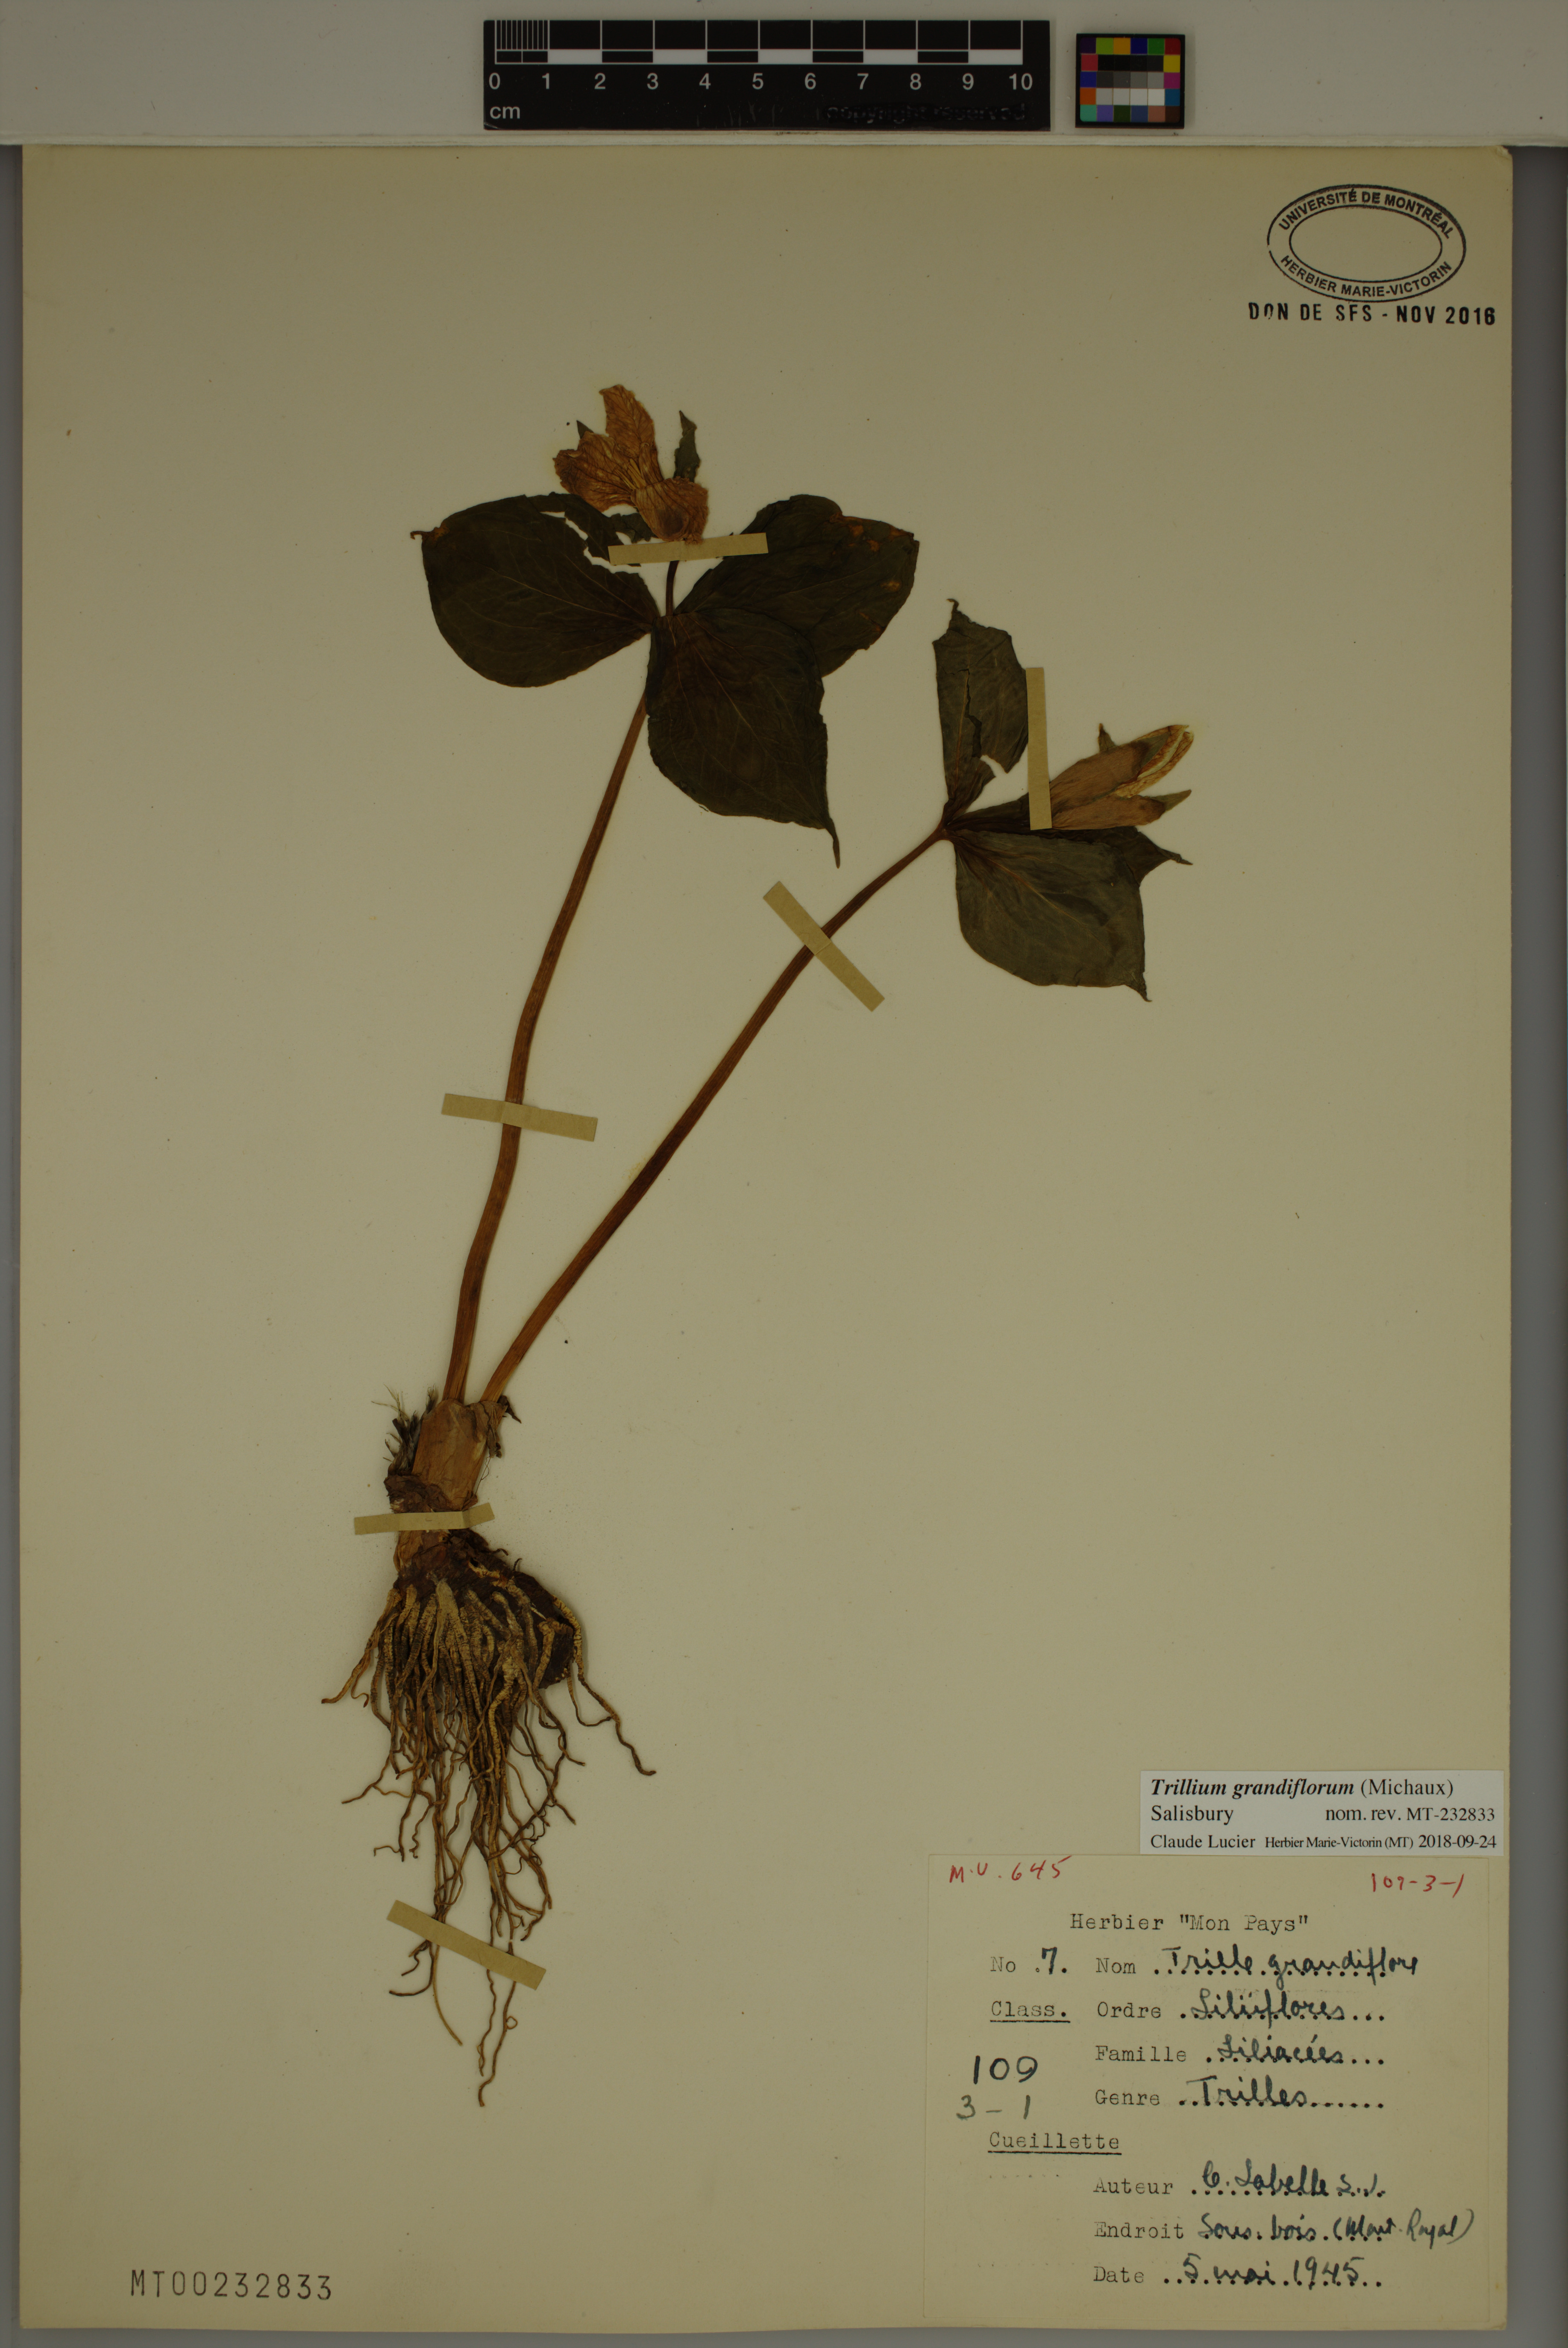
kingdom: Plantae
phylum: Tracheophyta
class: Liliopsida
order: Liliales
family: Melanthiaceae
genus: Trillium
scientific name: Trillium grandiflorum
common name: Great white trillium
